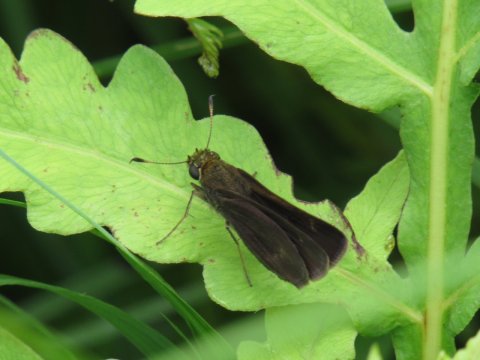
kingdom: Animalia
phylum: Arthropoda
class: Insecta
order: Lepidoptera
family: Hesperiidae
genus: Euphyes
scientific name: Euphyes vestris
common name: Dun Skipper
